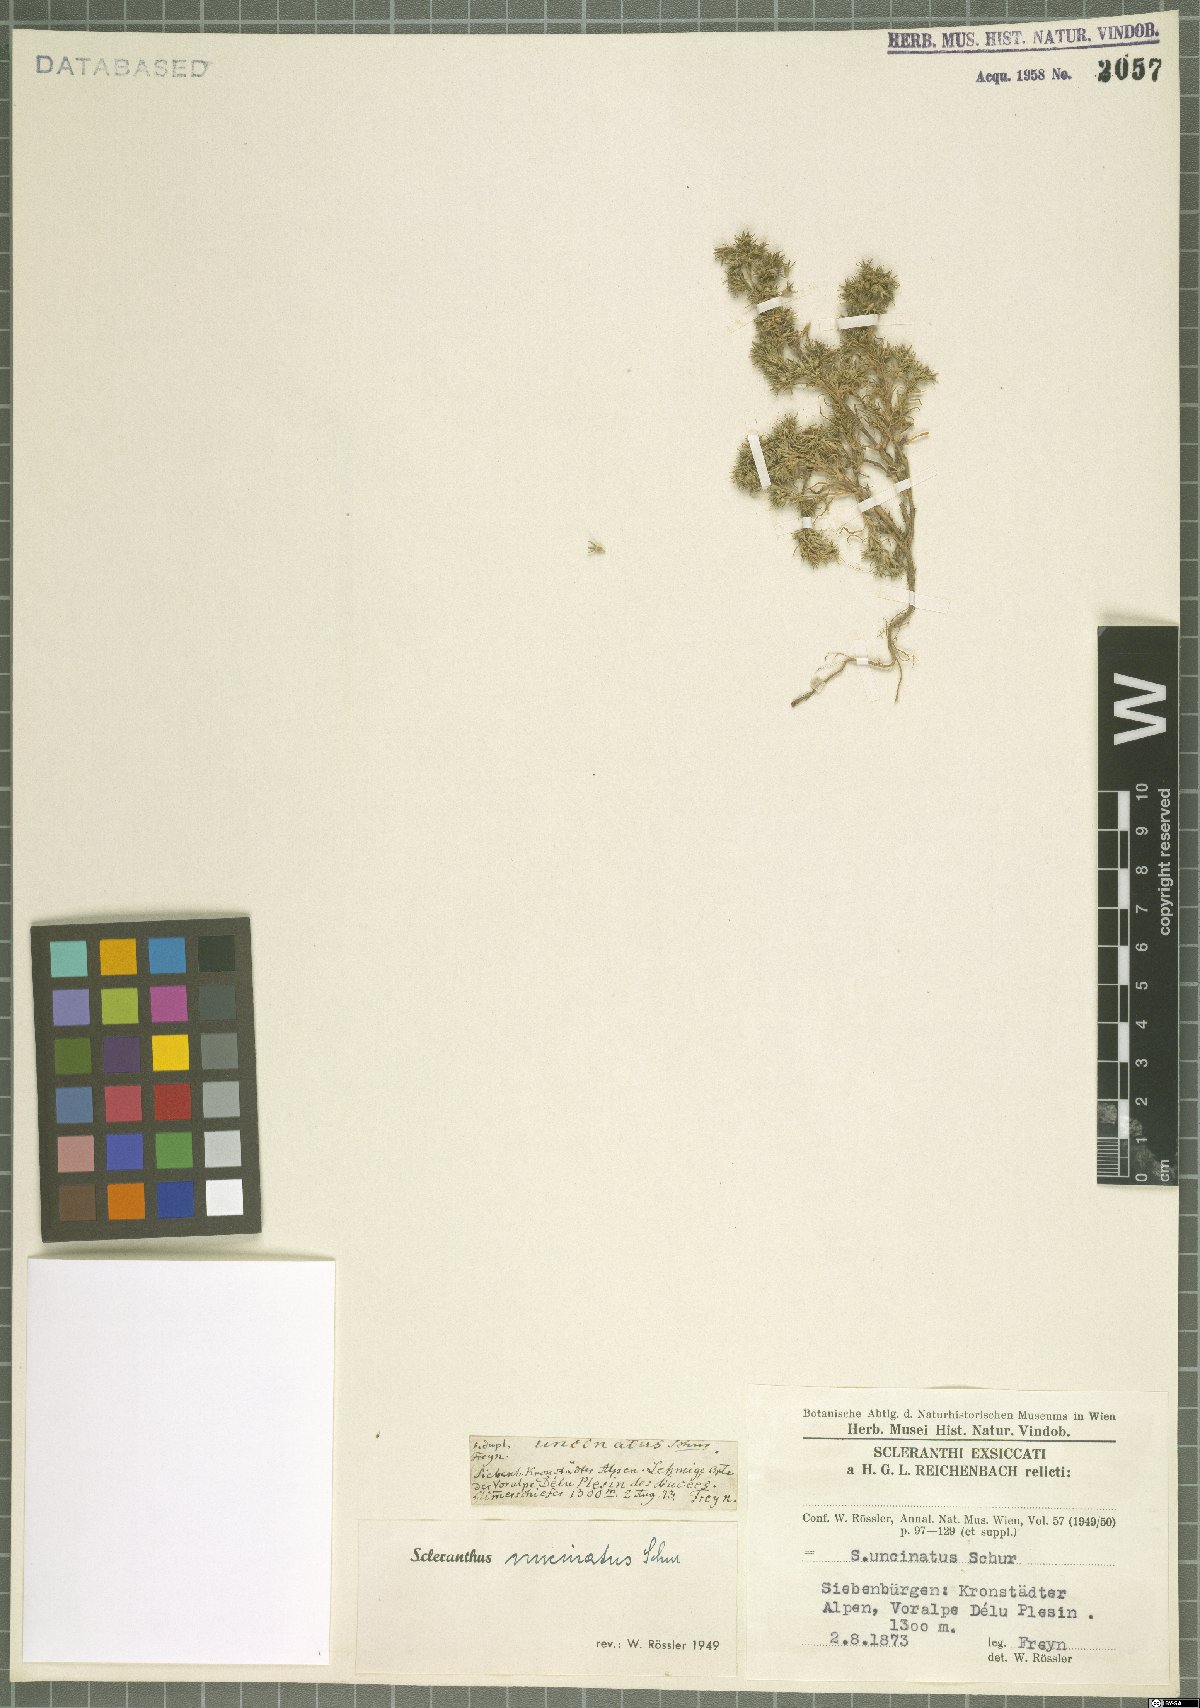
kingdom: Plantae
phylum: Tracheophyta
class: Magnoliopsida
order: Caryophyllales
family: Caryophyllaceae
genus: Scleranthus
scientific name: Scleranthus uncinatus
